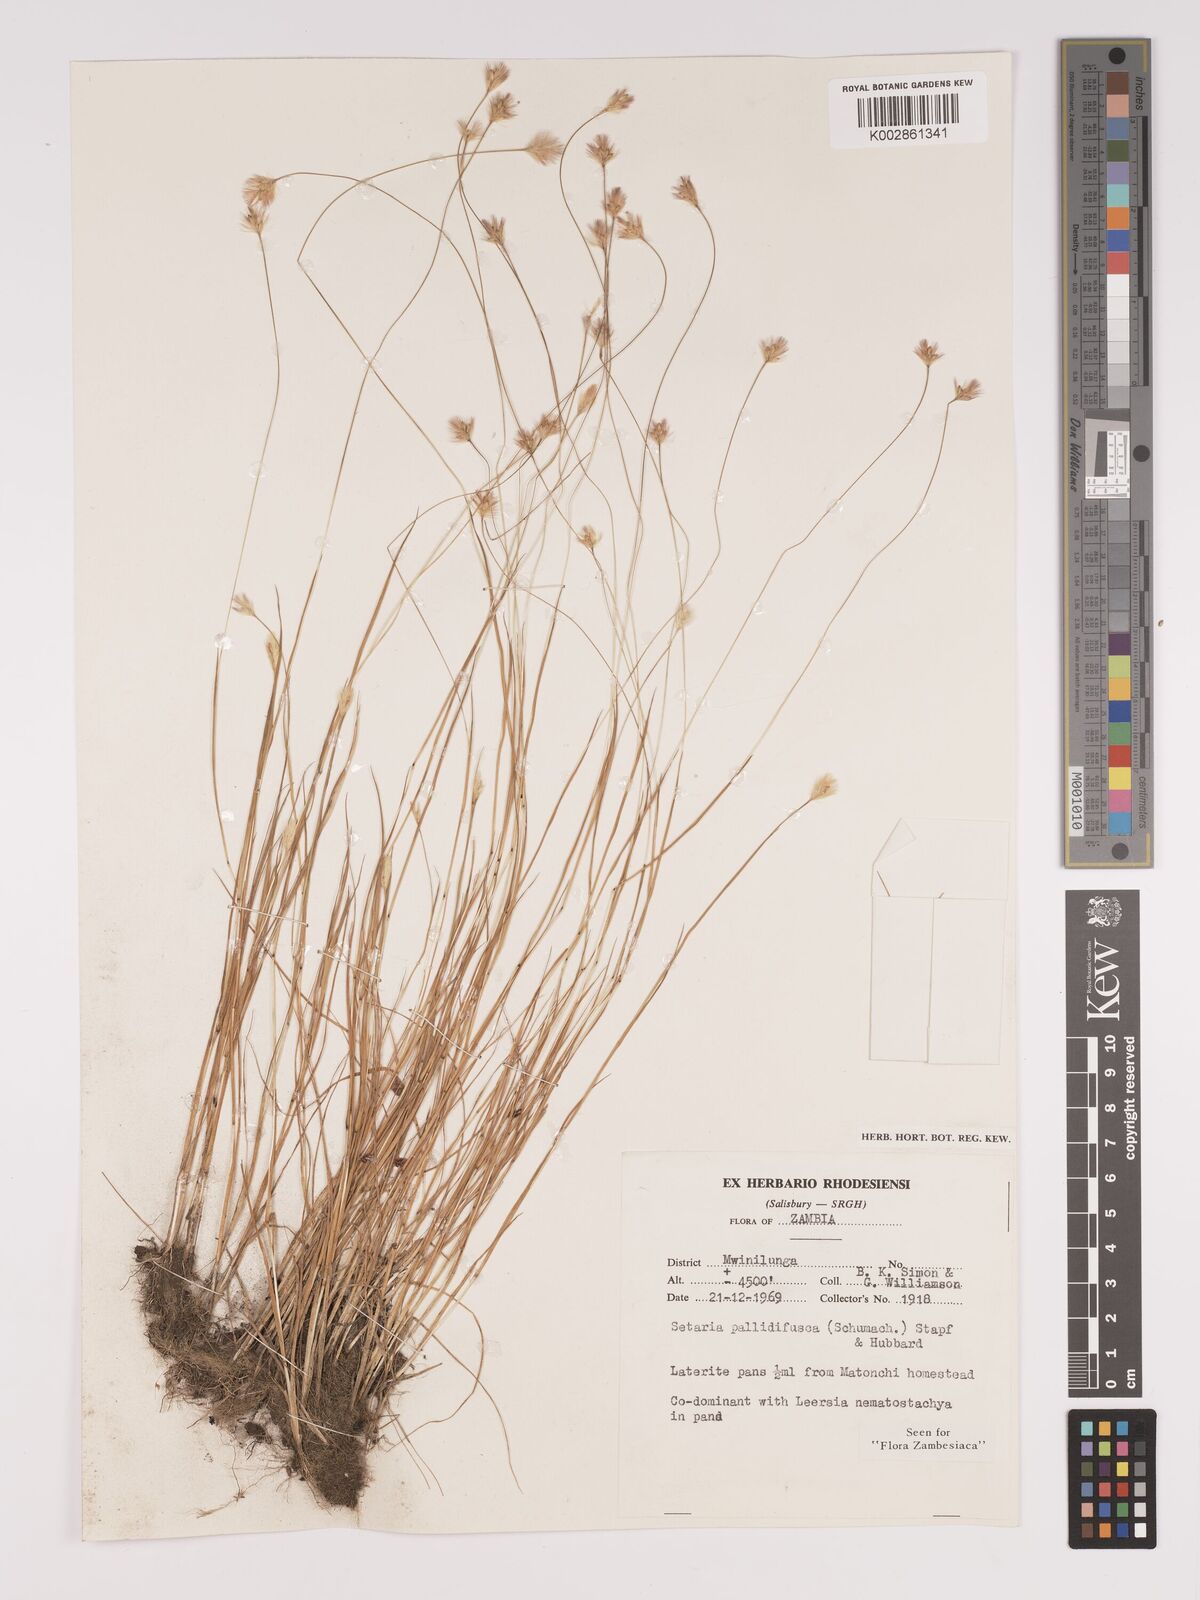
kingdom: Plantae
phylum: Tracheophyta
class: Liliopsida
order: Poales
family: Poaceae
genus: Setaria
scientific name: Setaria pumila
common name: Yellow bristle-grass
